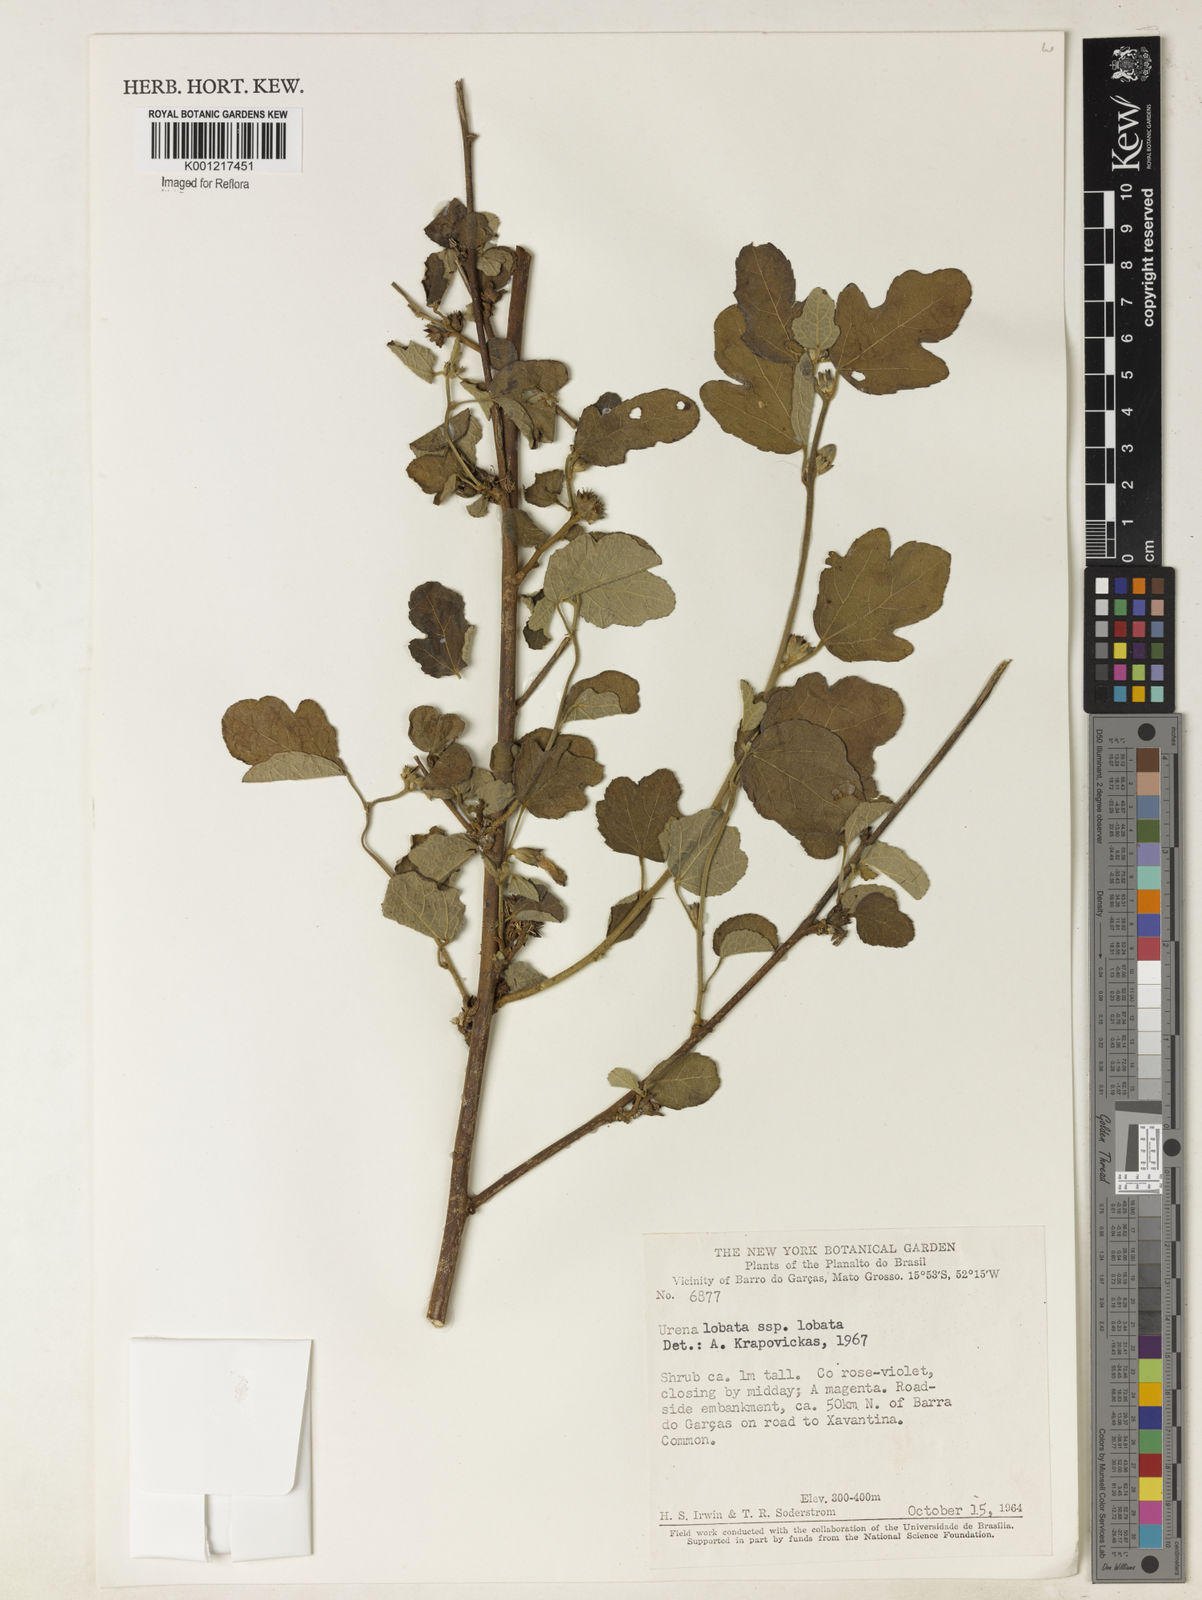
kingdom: Plantae
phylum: Tracheophyta
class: Magnoliopsida
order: Malvales
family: Malvaceae
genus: Urena
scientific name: Urena lobata
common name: Caesarweed
